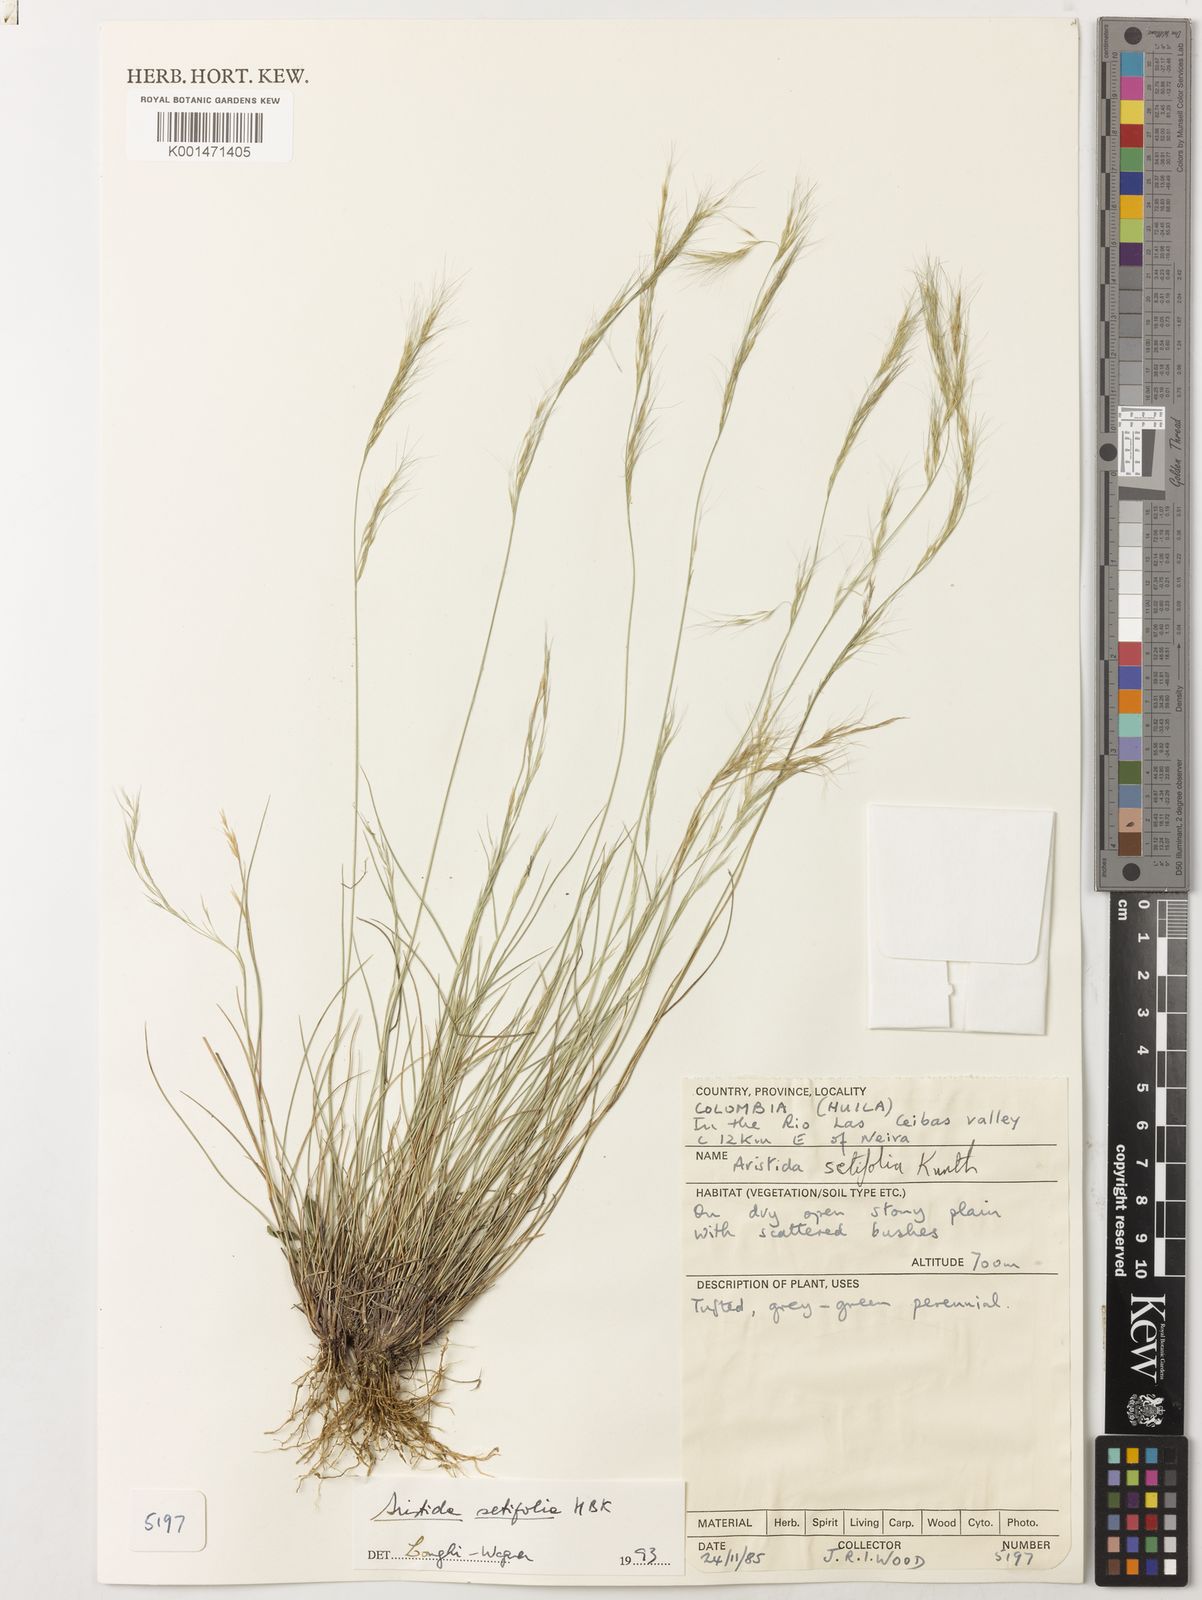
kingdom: Plantae
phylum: Tracheophyta
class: Liliopsida
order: Poales
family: Poaceae
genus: Aristida
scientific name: Aristida setifolia
